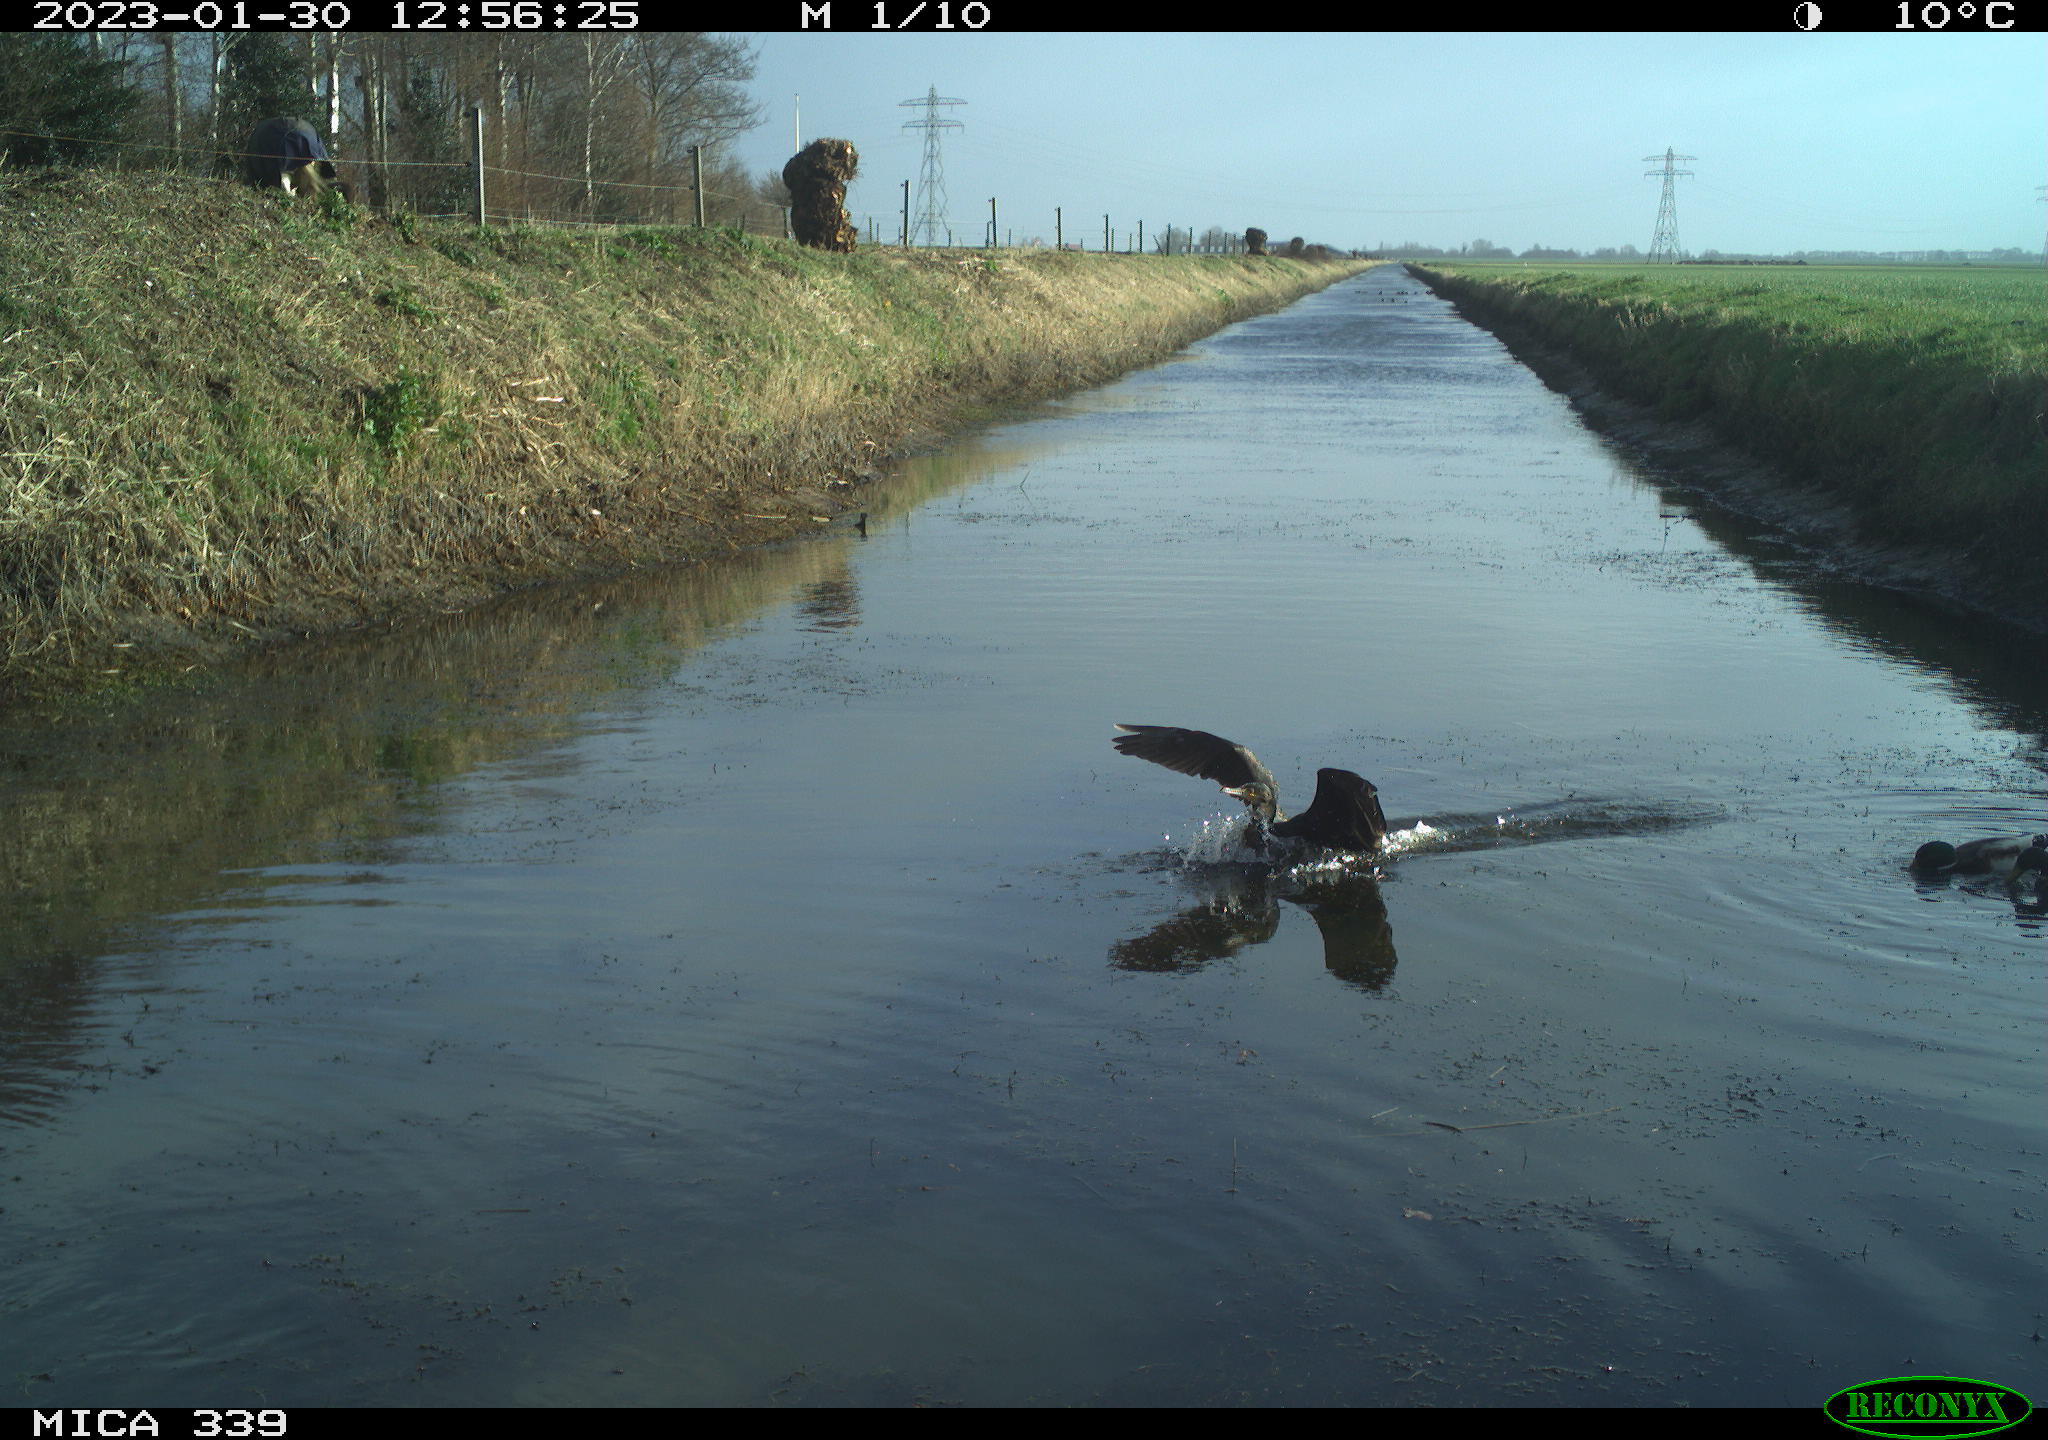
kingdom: Animalia
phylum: Chordata
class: Aves
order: Anseriformes
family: Anatidae
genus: Anas
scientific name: Anas
